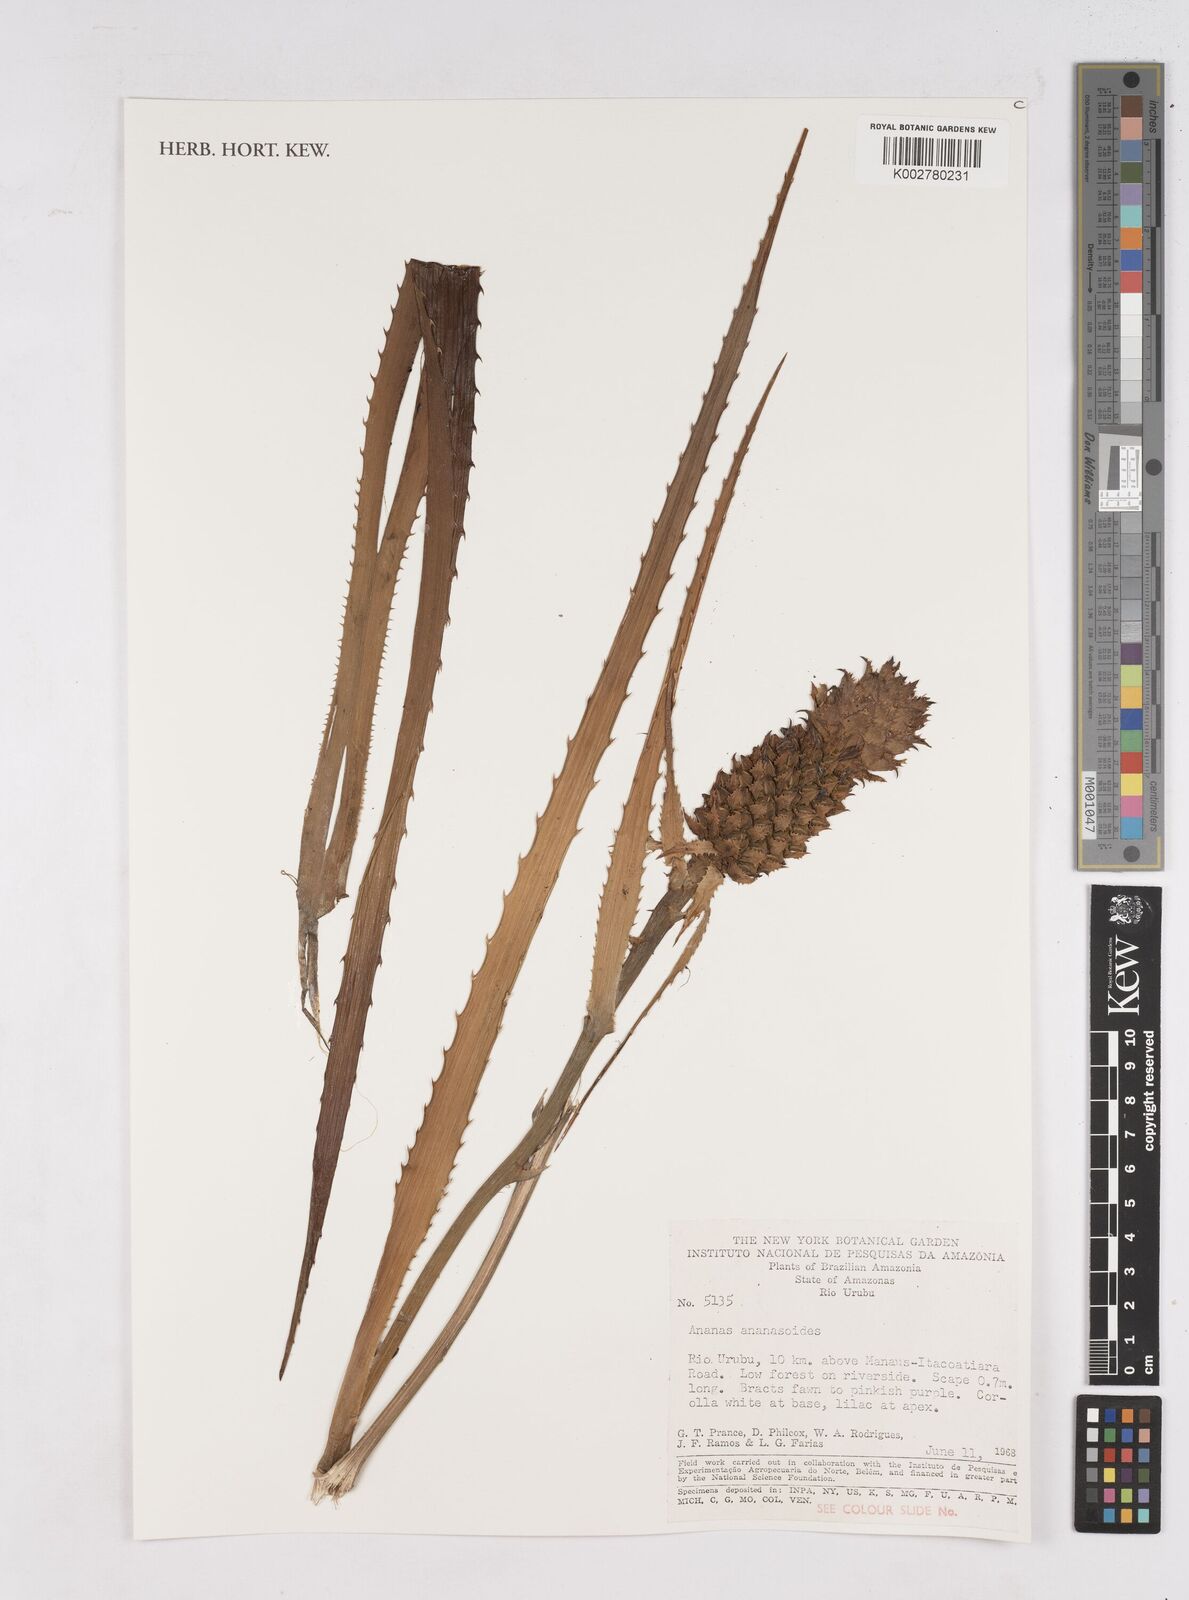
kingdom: Plantae
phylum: Tracheophyta
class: Liliopsida
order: Poales
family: Bromeliaceae
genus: Ananas
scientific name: Ananas comosus
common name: Pineapple
